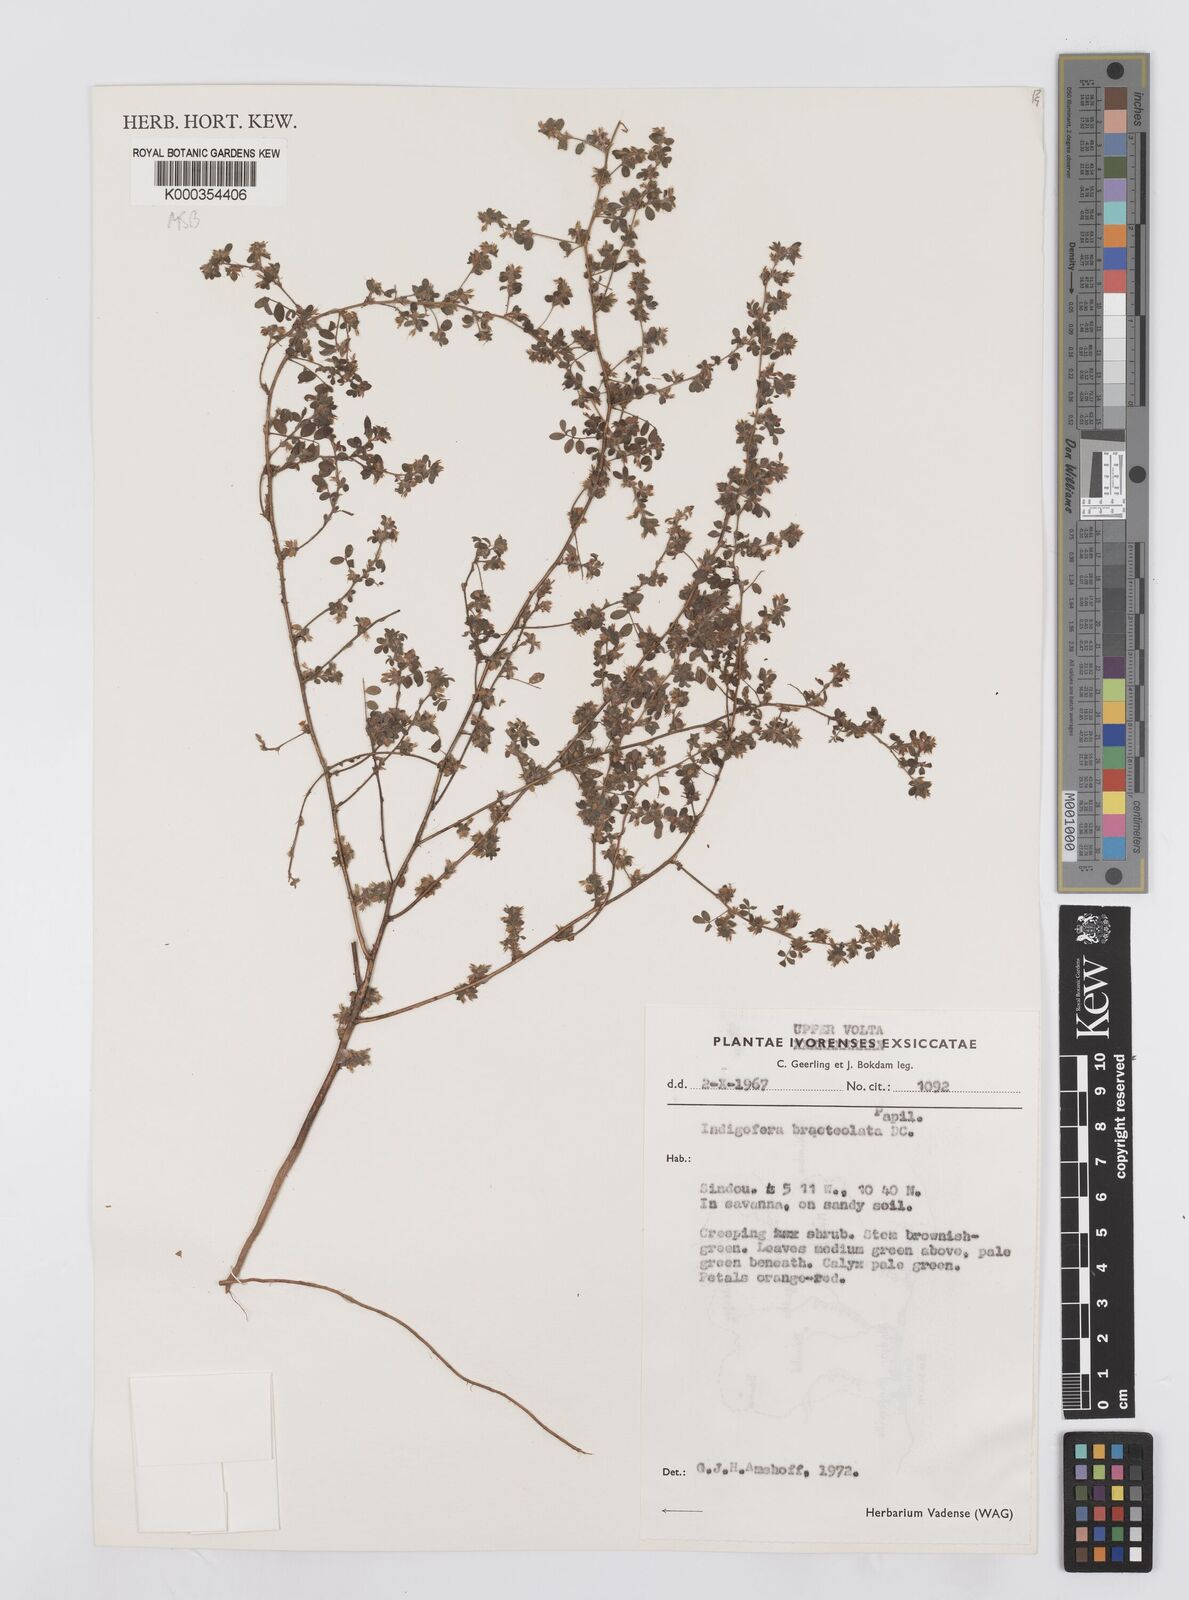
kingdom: Plantae
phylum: Tracheophyta
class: Magnoliopsida
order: Fabales
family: Fabaceae
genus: Indigofera
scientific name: Indigofera bracteolata
